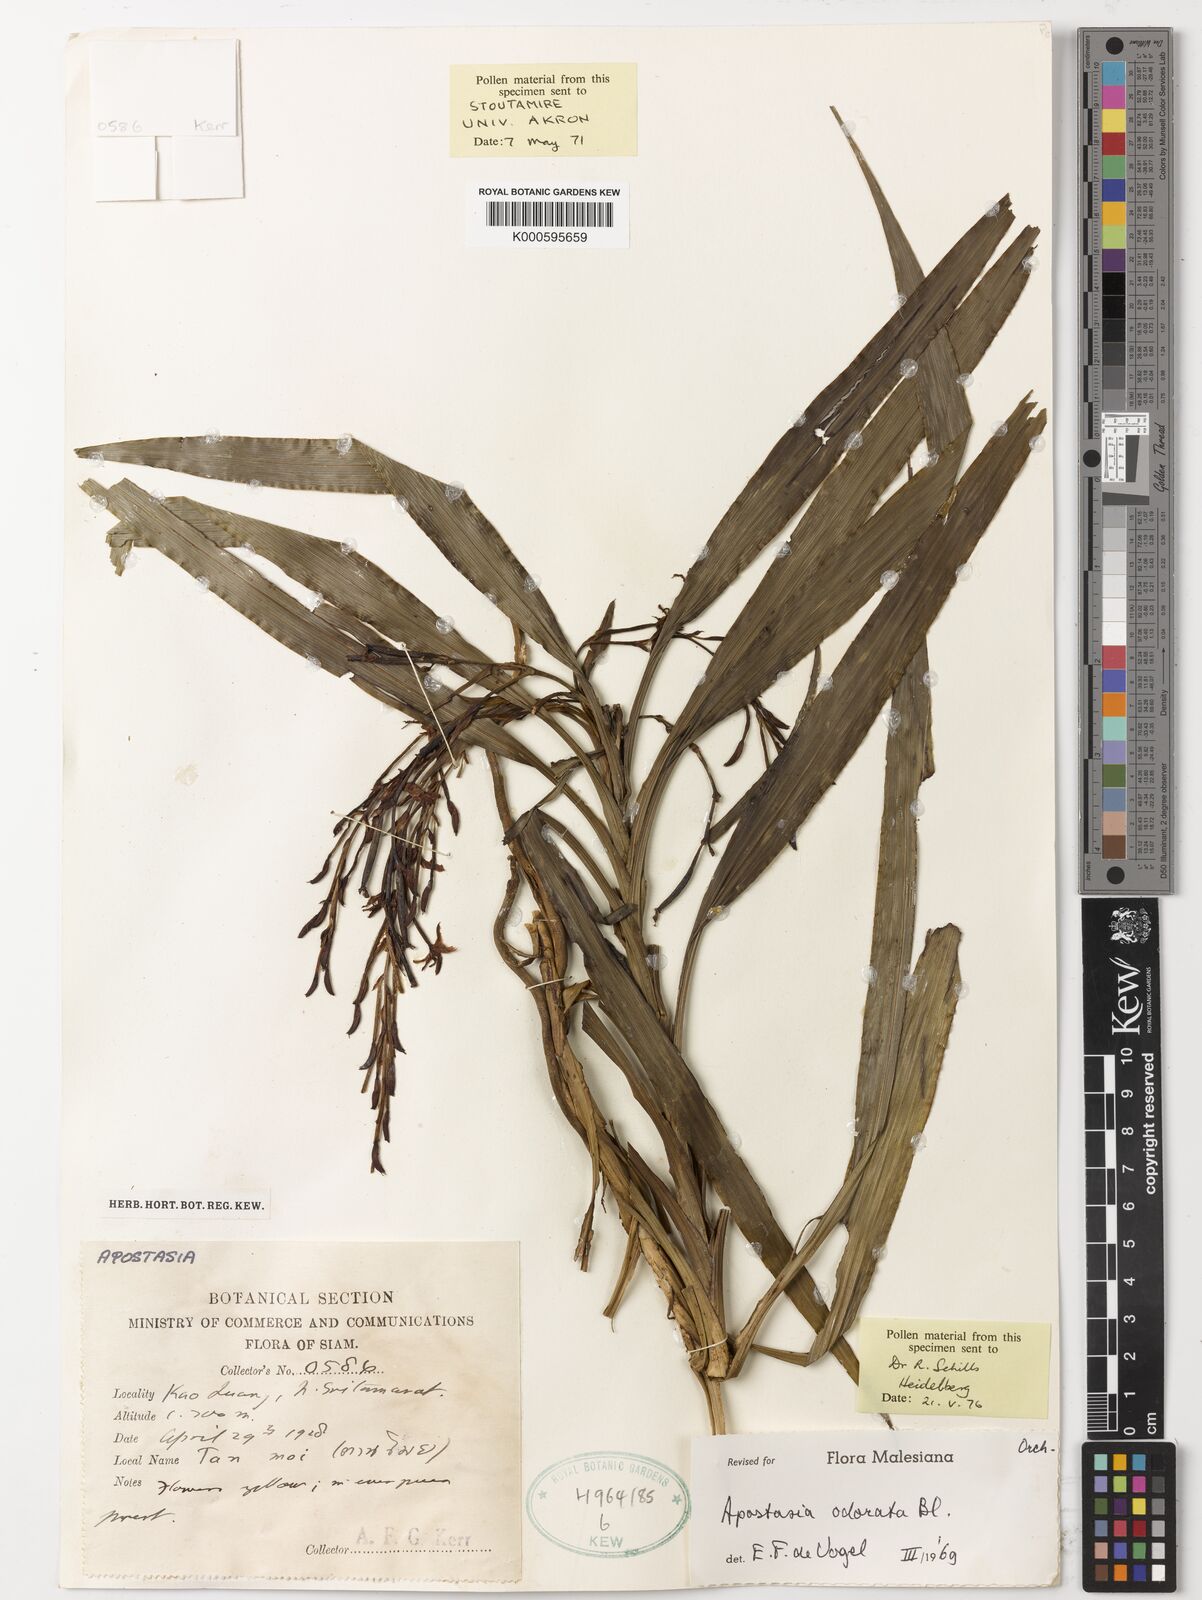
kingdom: Plantae
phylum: Tracheophyta
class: Liliopsida
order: Asparagales
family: Orchidaceae
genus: Apostasia
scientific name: Apostasia odorata
